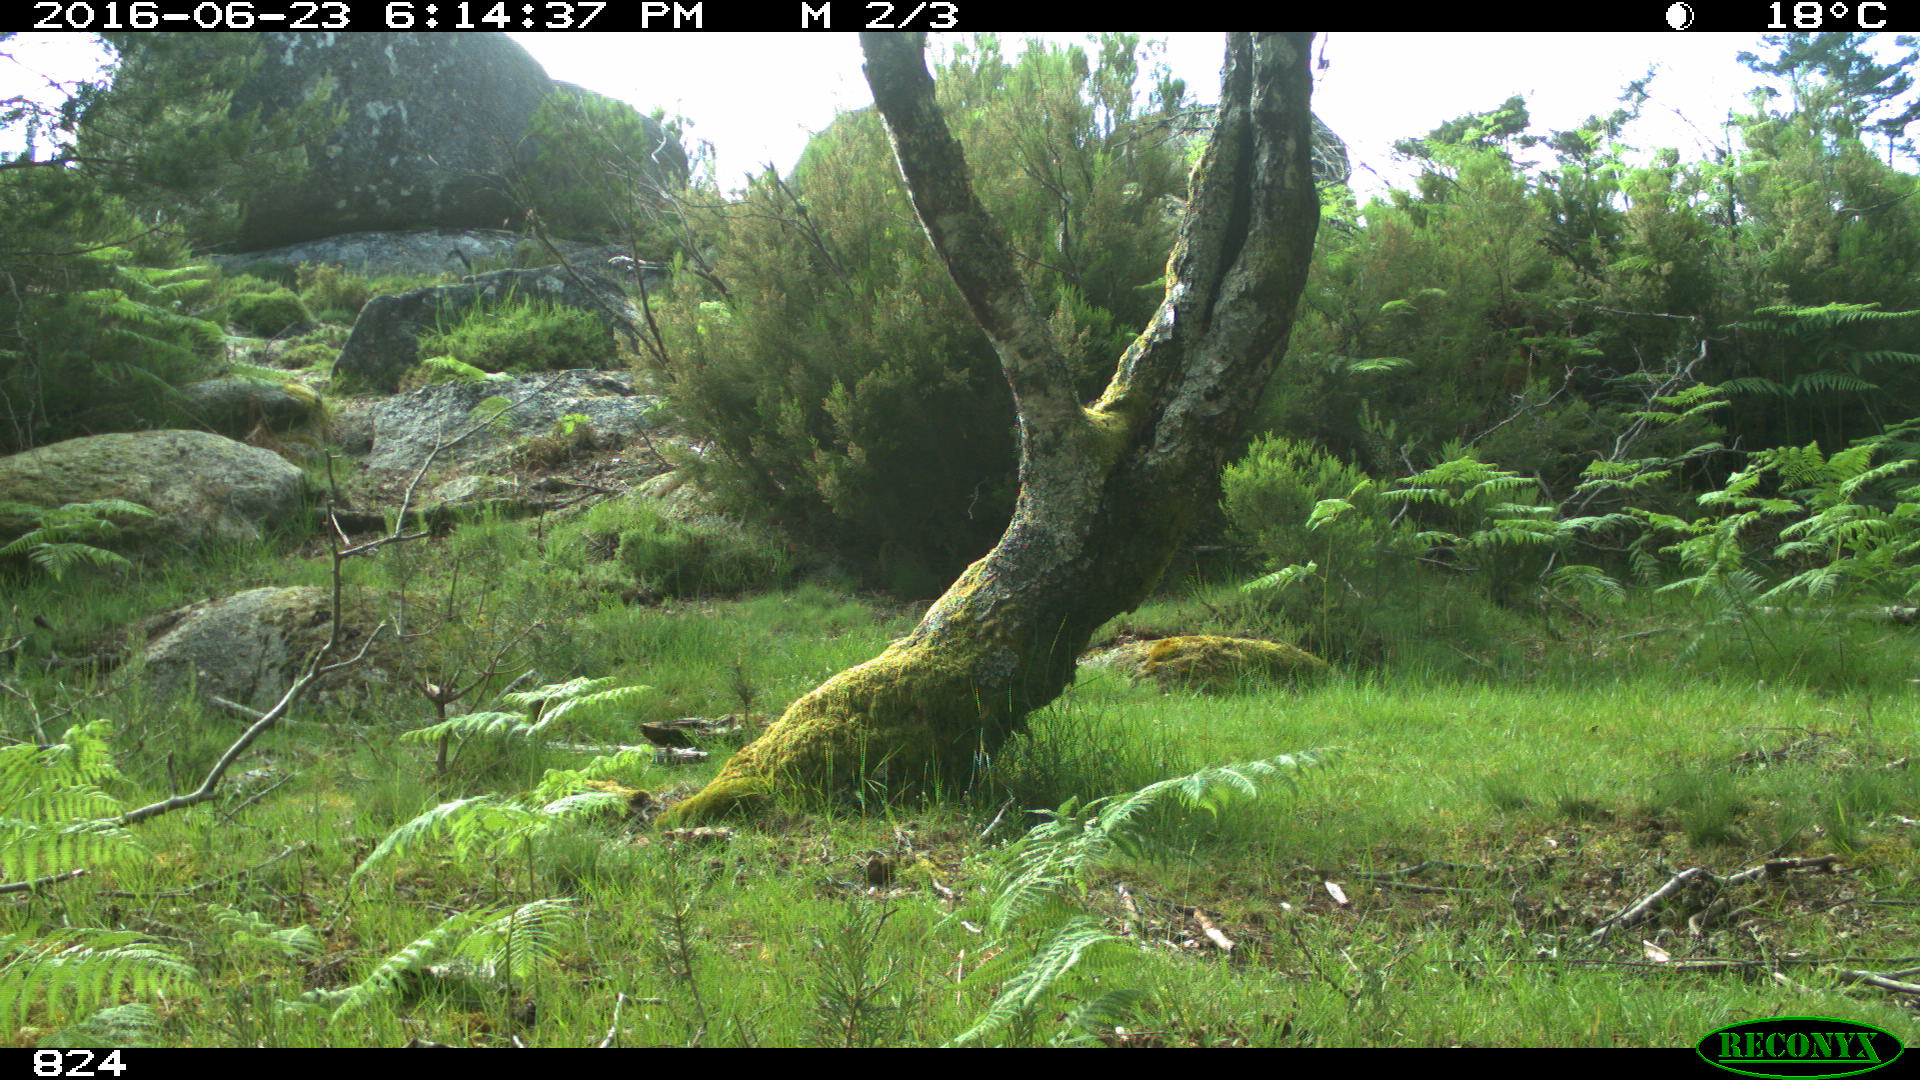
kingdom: Animalia
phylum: Chordata
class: Mammalia
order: Perissodactyla
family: Equidae
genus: Equus
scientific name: Equus caballus
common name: Horse
